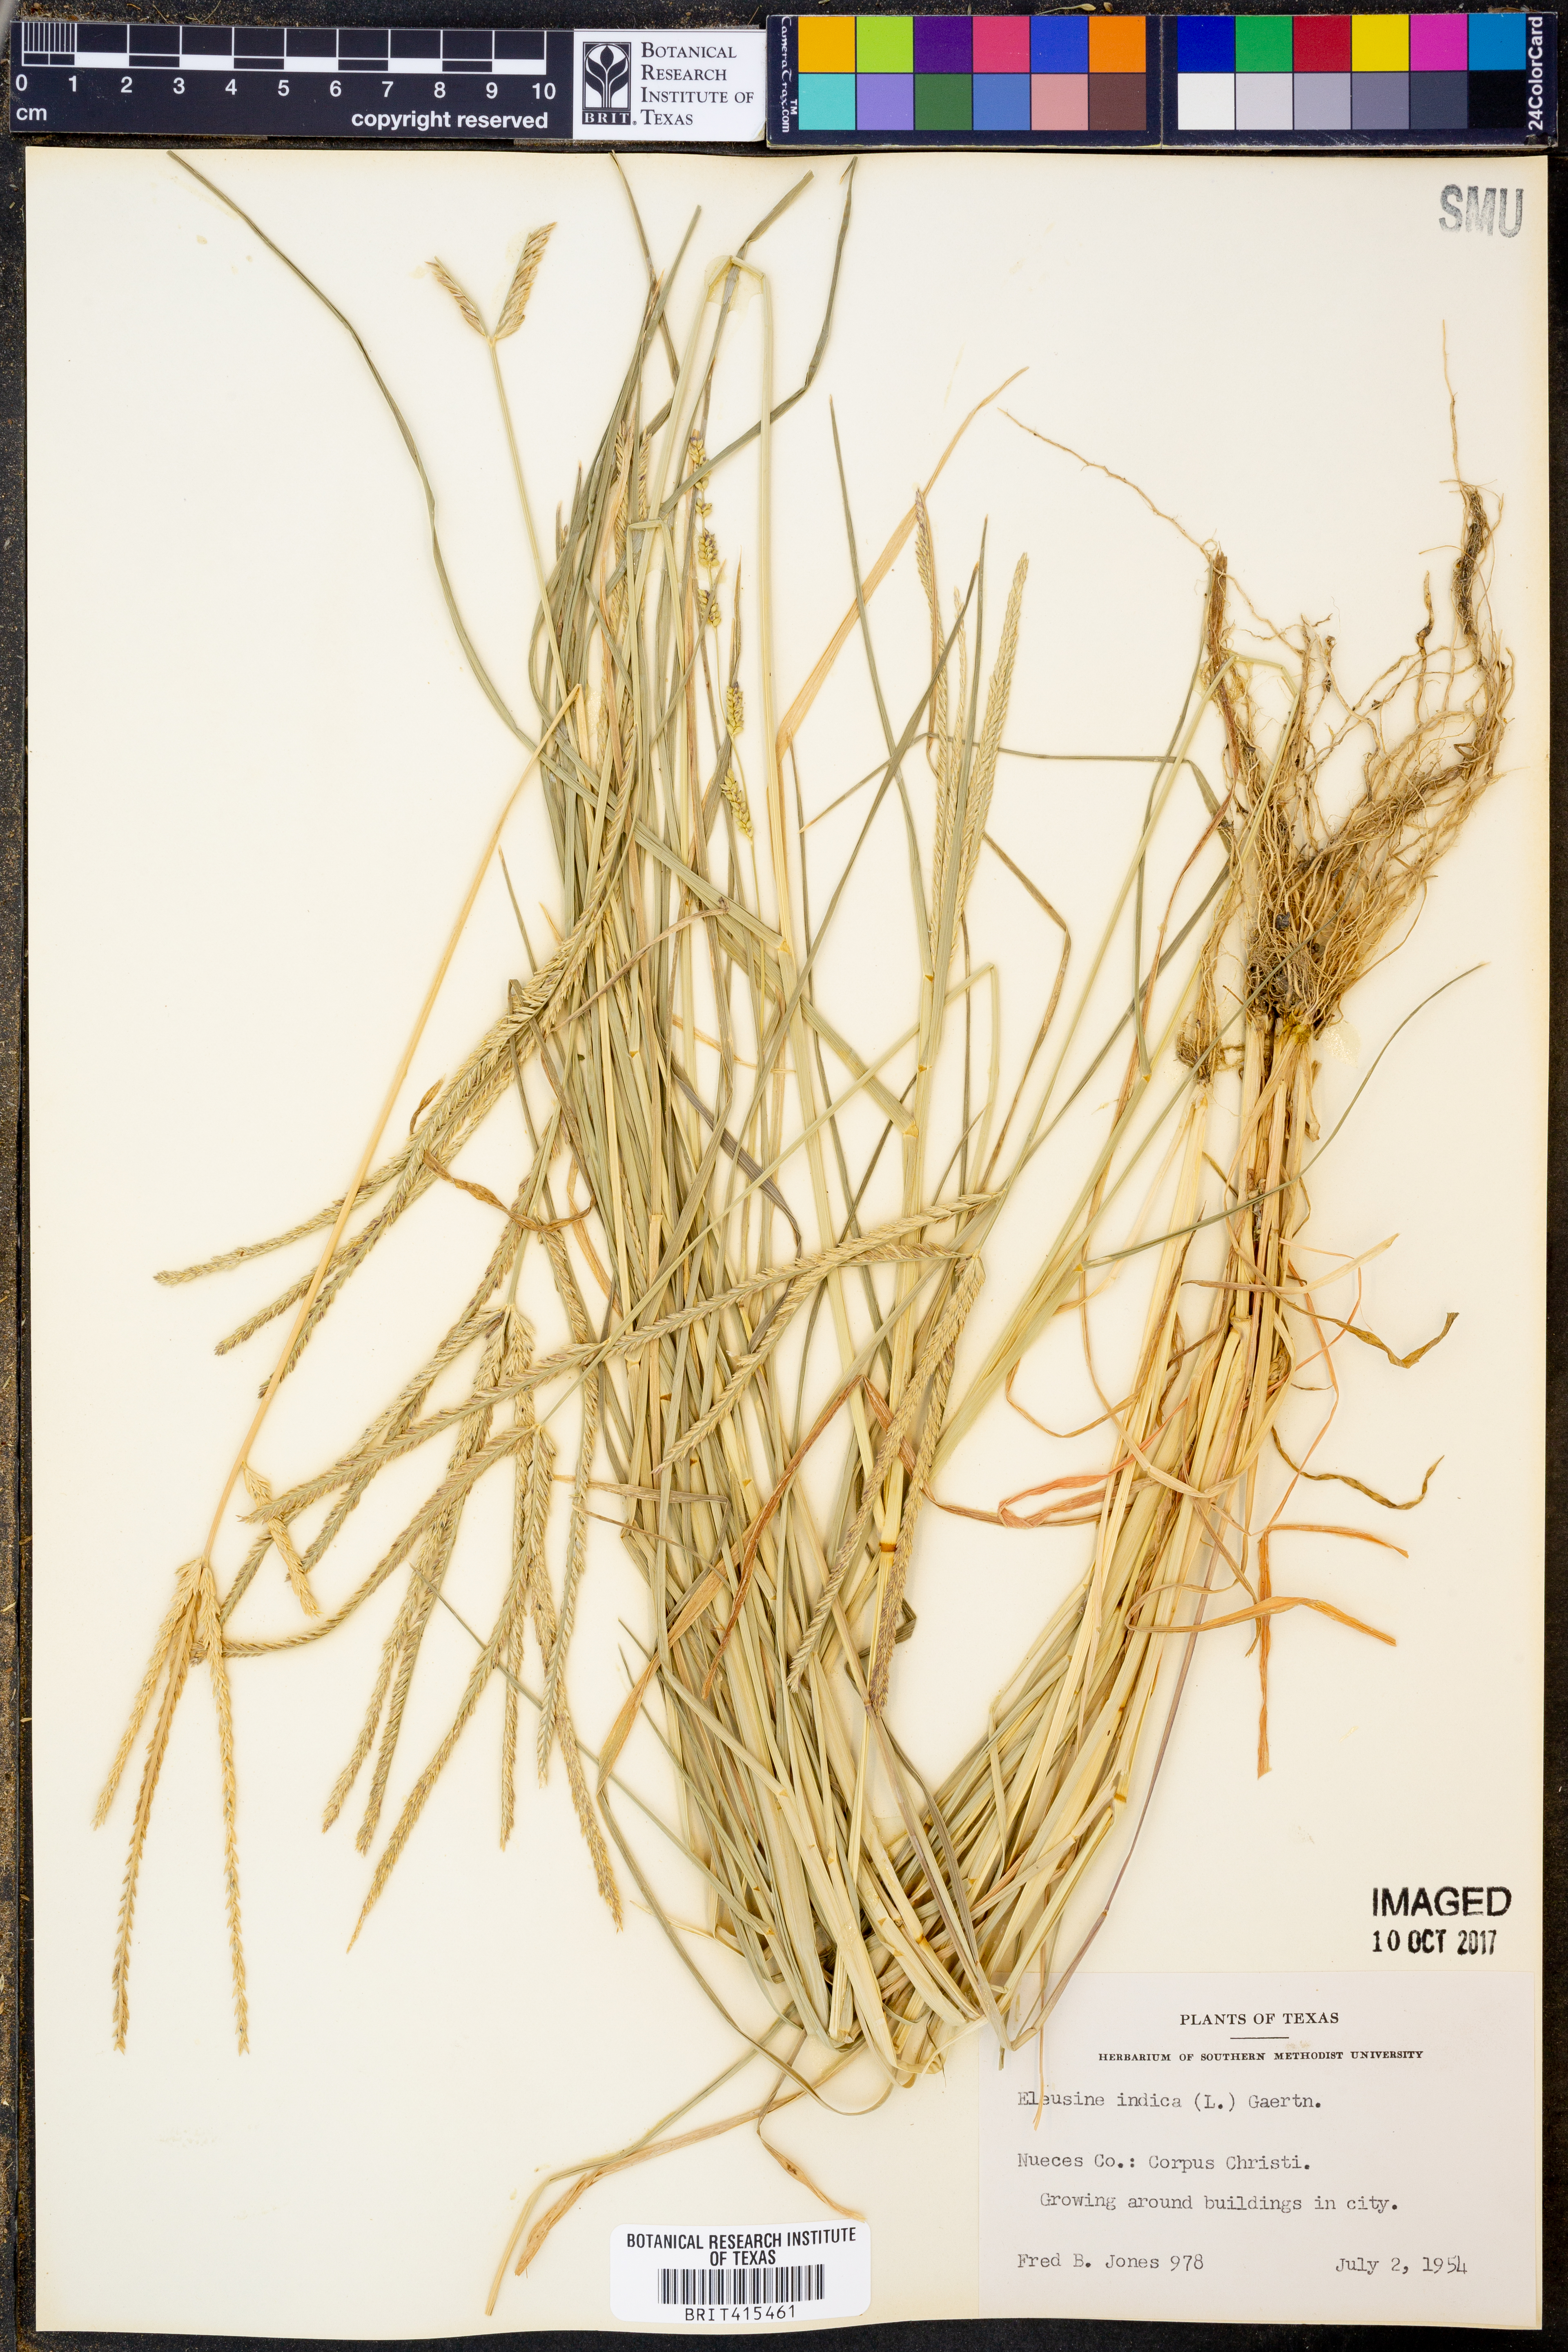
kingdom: Plantae
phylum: Tracheophyta
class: Liliopsida
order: Poales
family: Poaceae
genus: Eleusine
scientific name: Eleusine indica
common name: Yard-grass
